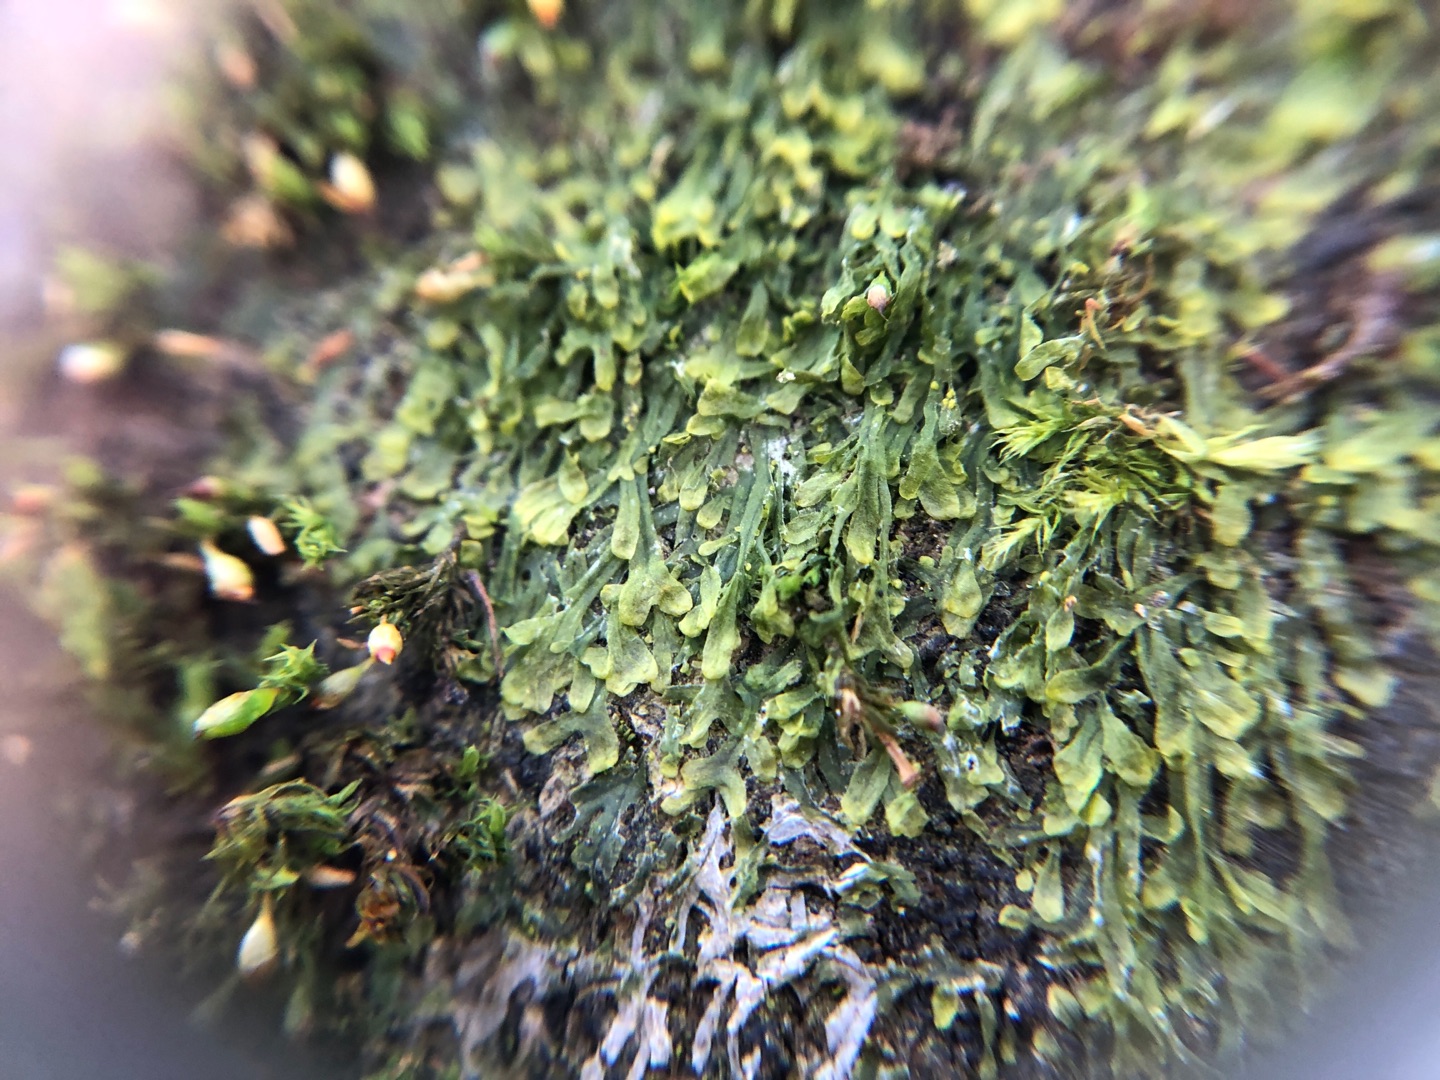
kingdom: Plantae
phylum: Marchantiophyta
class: Jungermanniopsida
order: Metzgeriales
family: Metzgeriaceae
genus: Metzgeria
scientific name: Metzgeria furcata
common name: Almindelig gaffelløv
